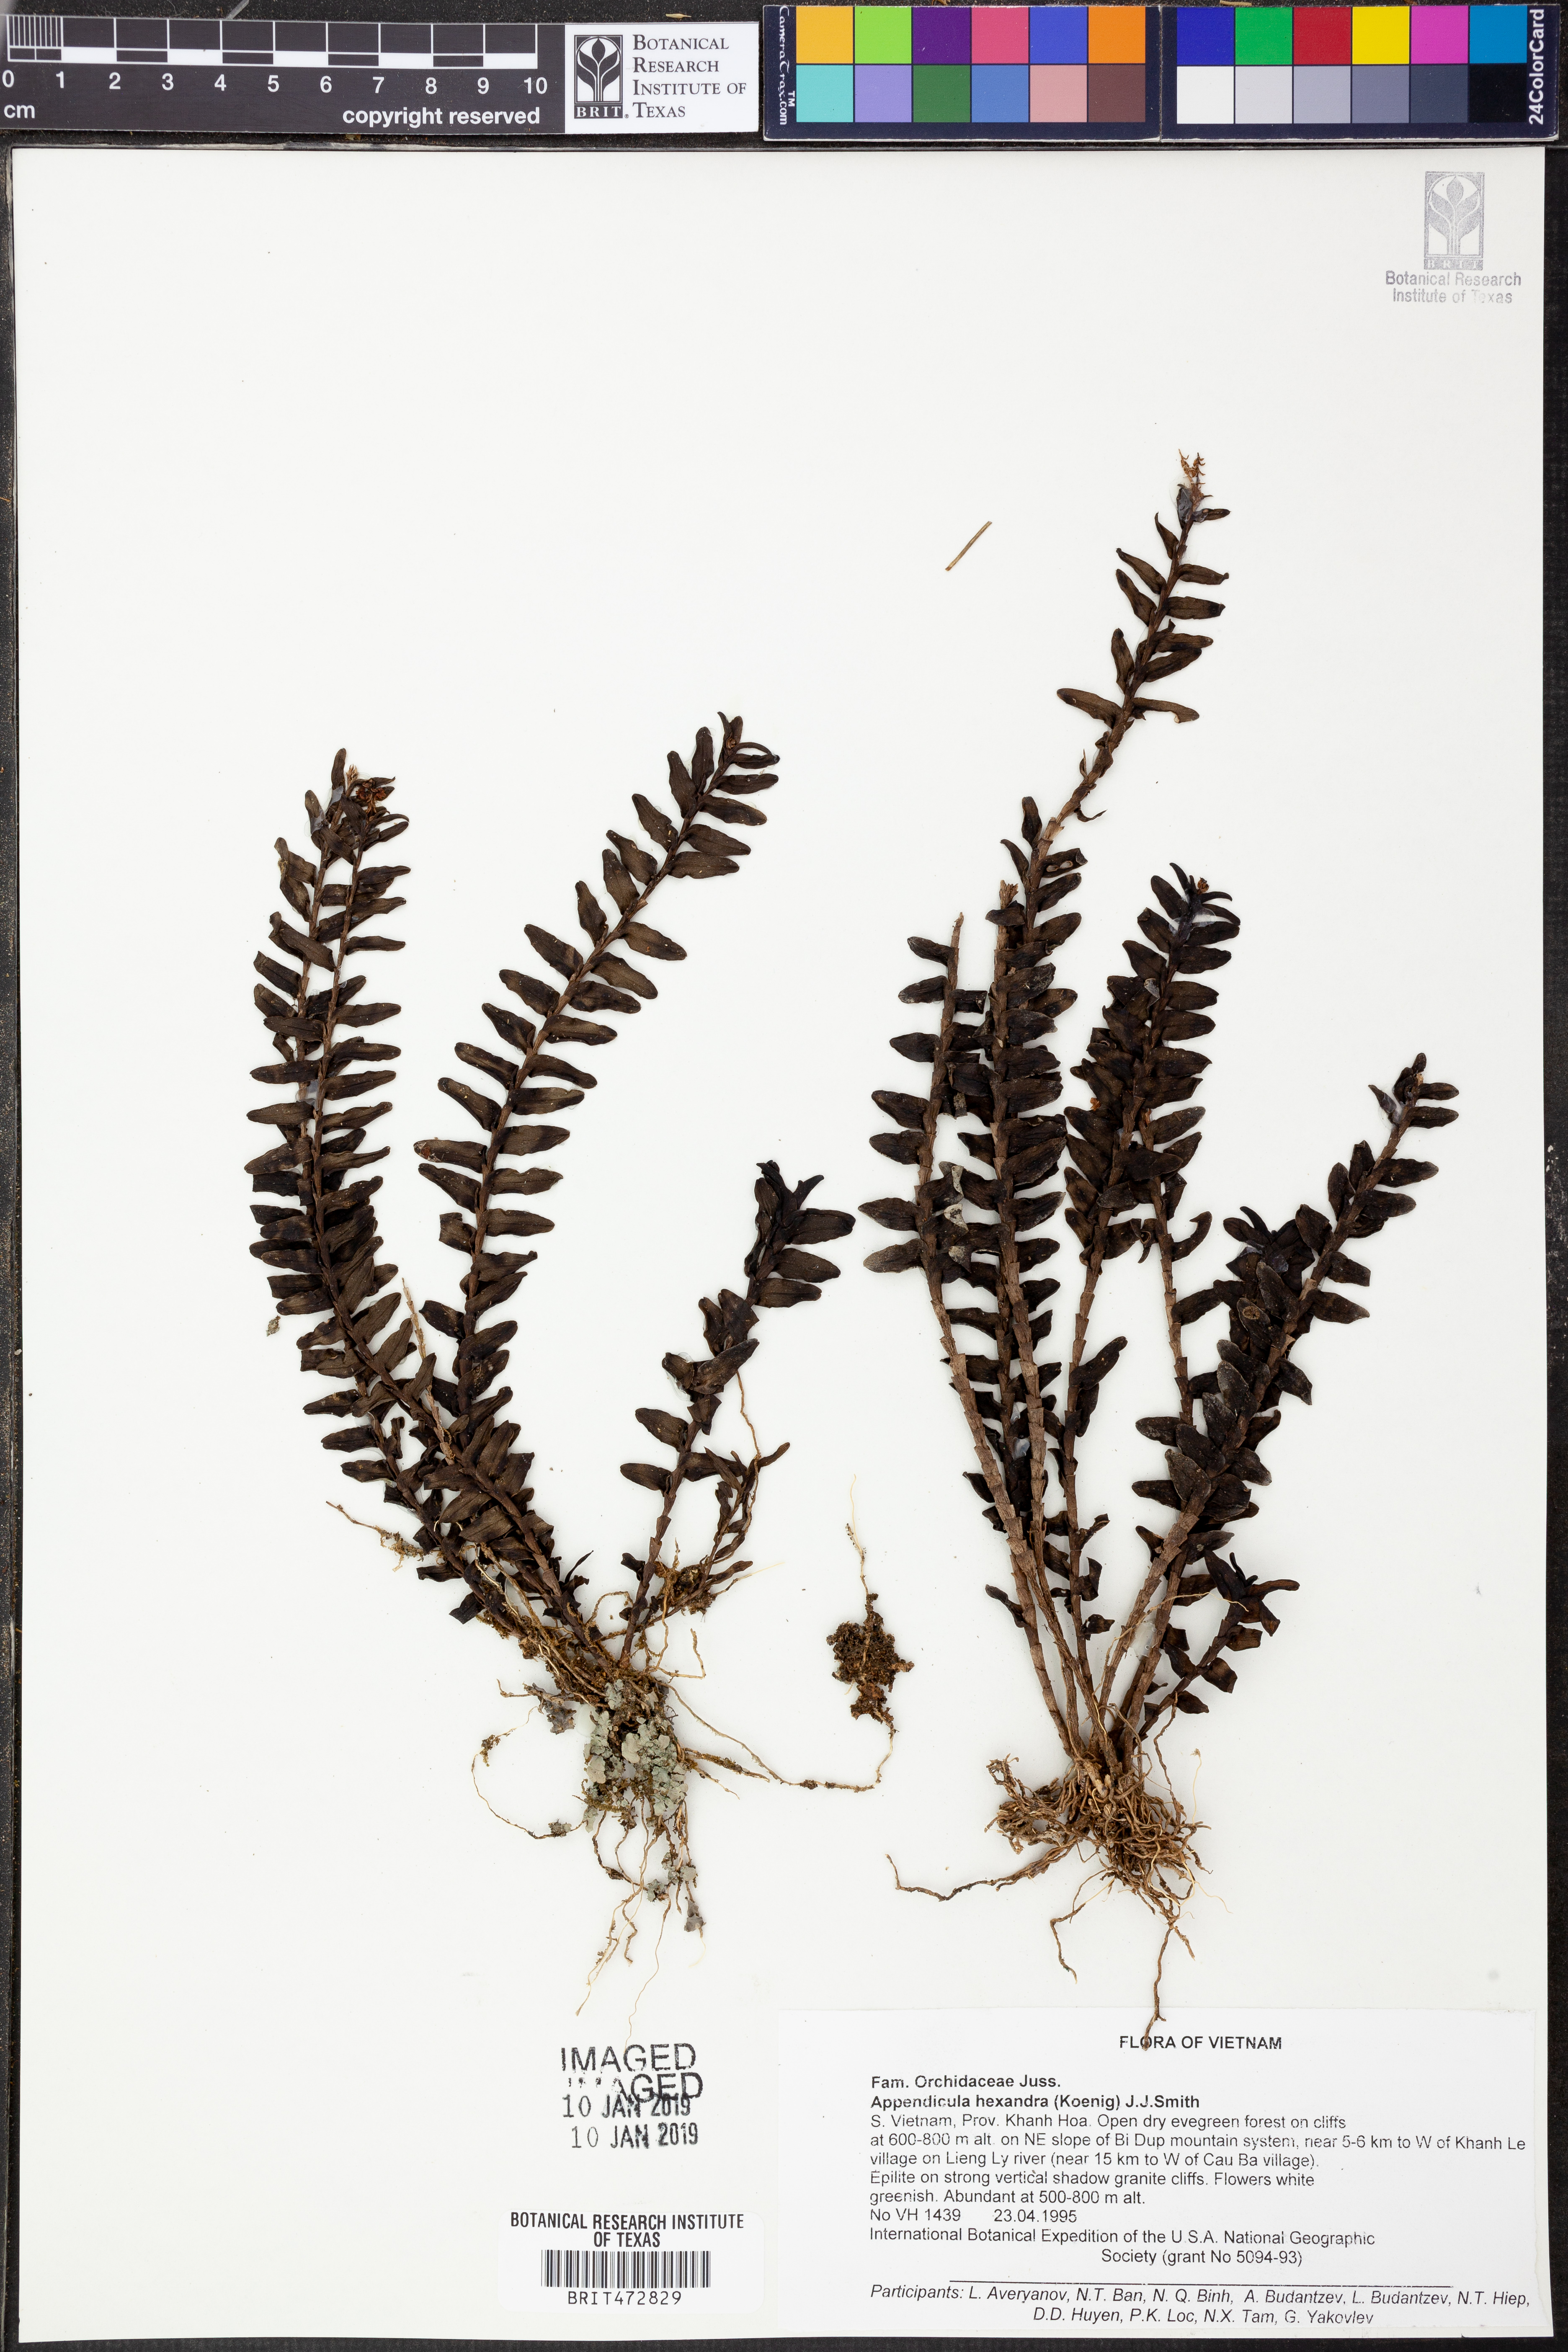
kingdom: Plantae
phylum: Tracheophyta
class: Liliopsida
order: Asparagales
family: Orchidaceae
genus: Appendicula
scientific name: Appendicula hexandra
